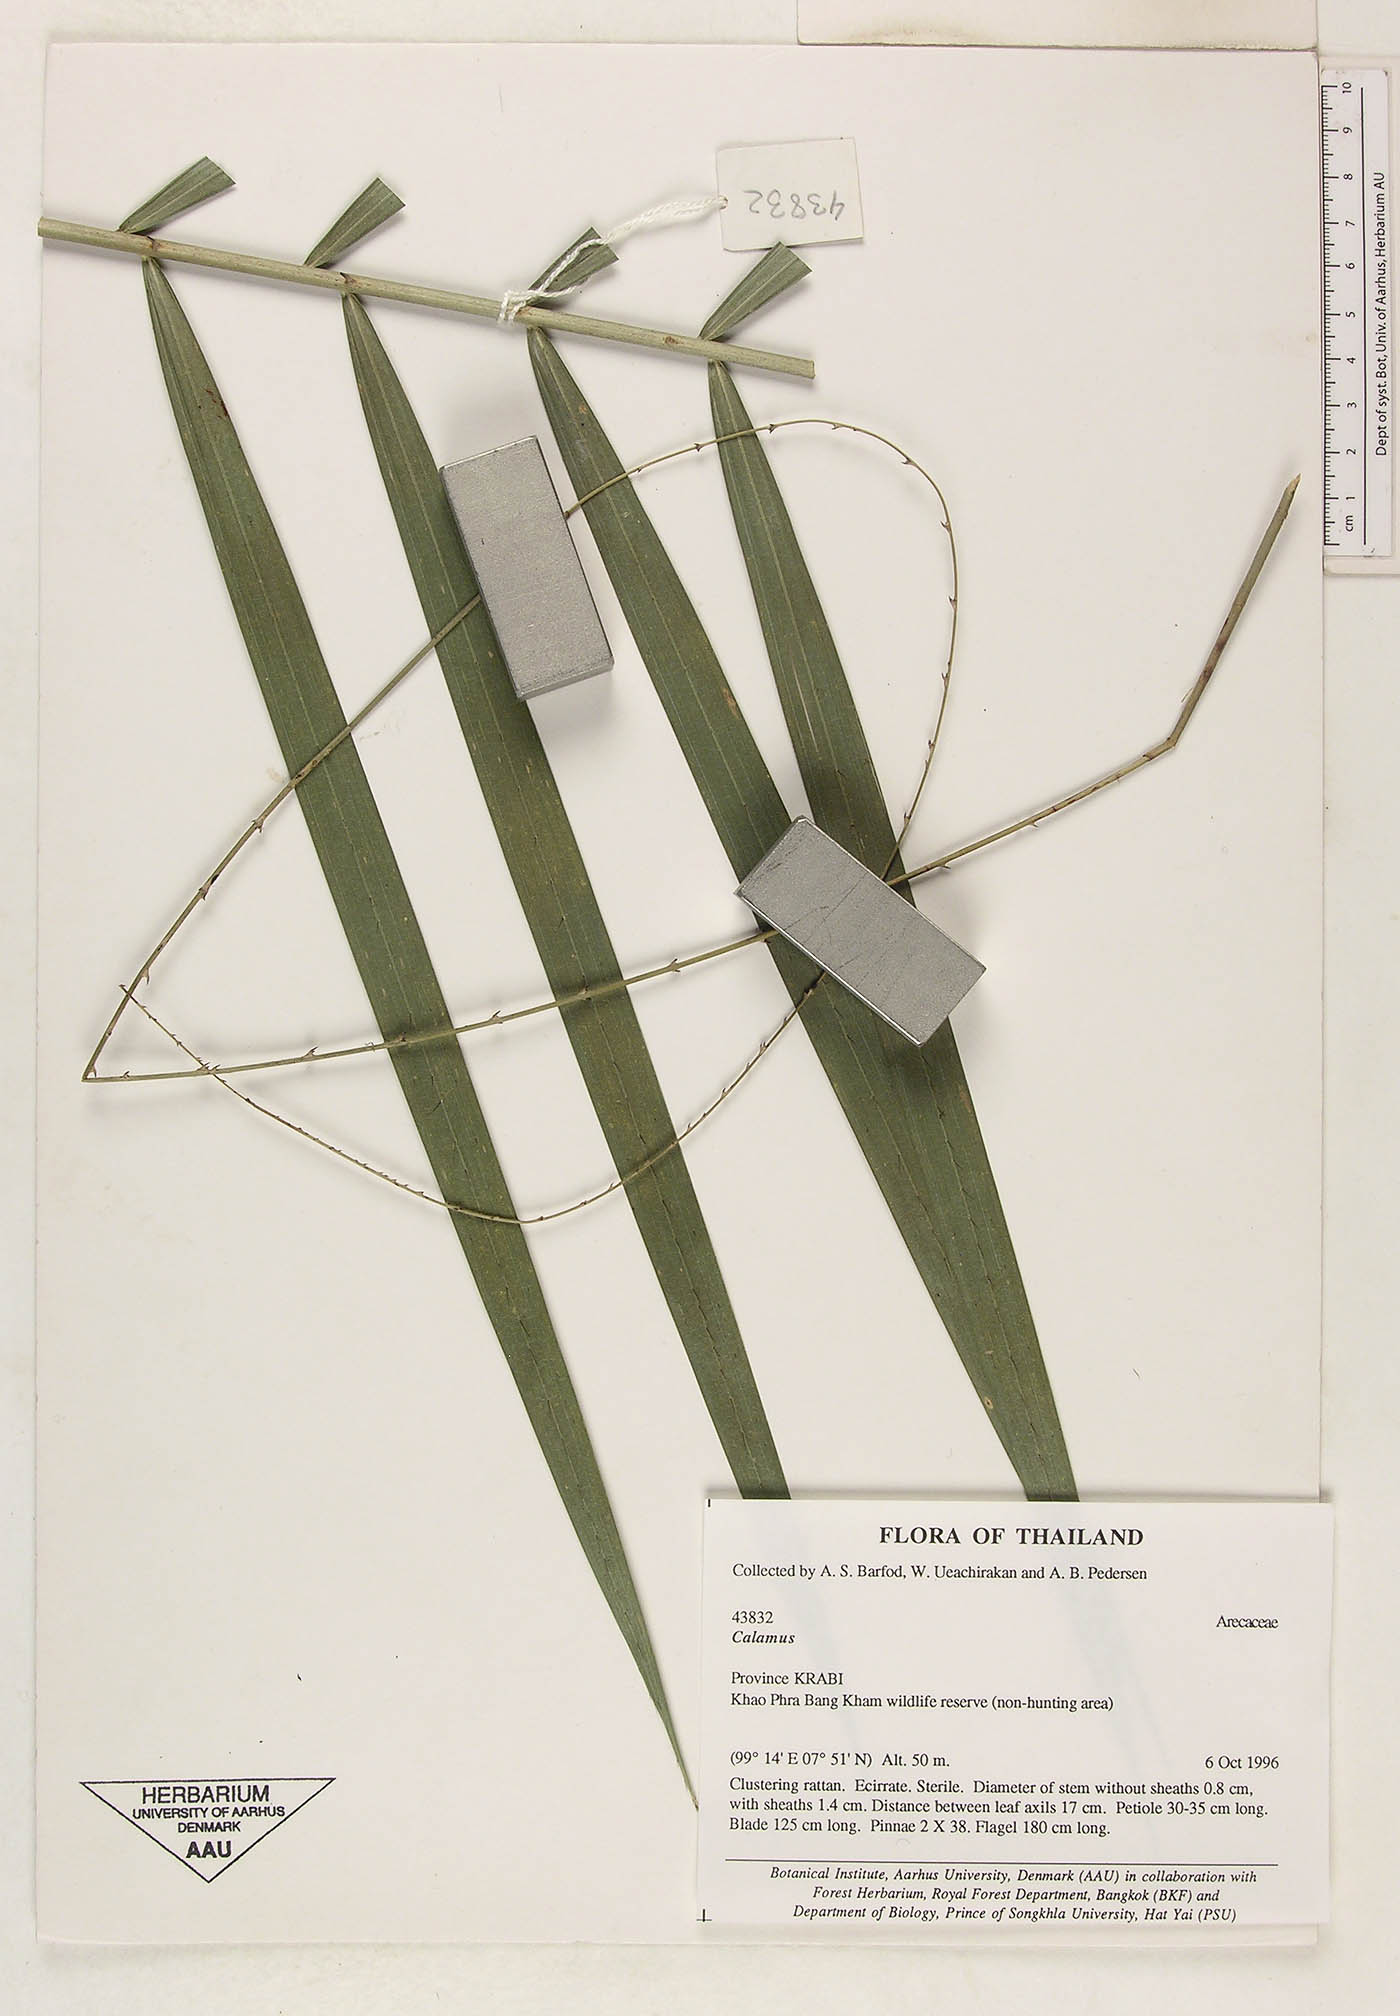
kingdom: Plantae
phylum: Tracheophyta
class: Liliopsida
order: Arecales
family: Arecaceae
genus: Calamus
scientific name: Calamus horrens
